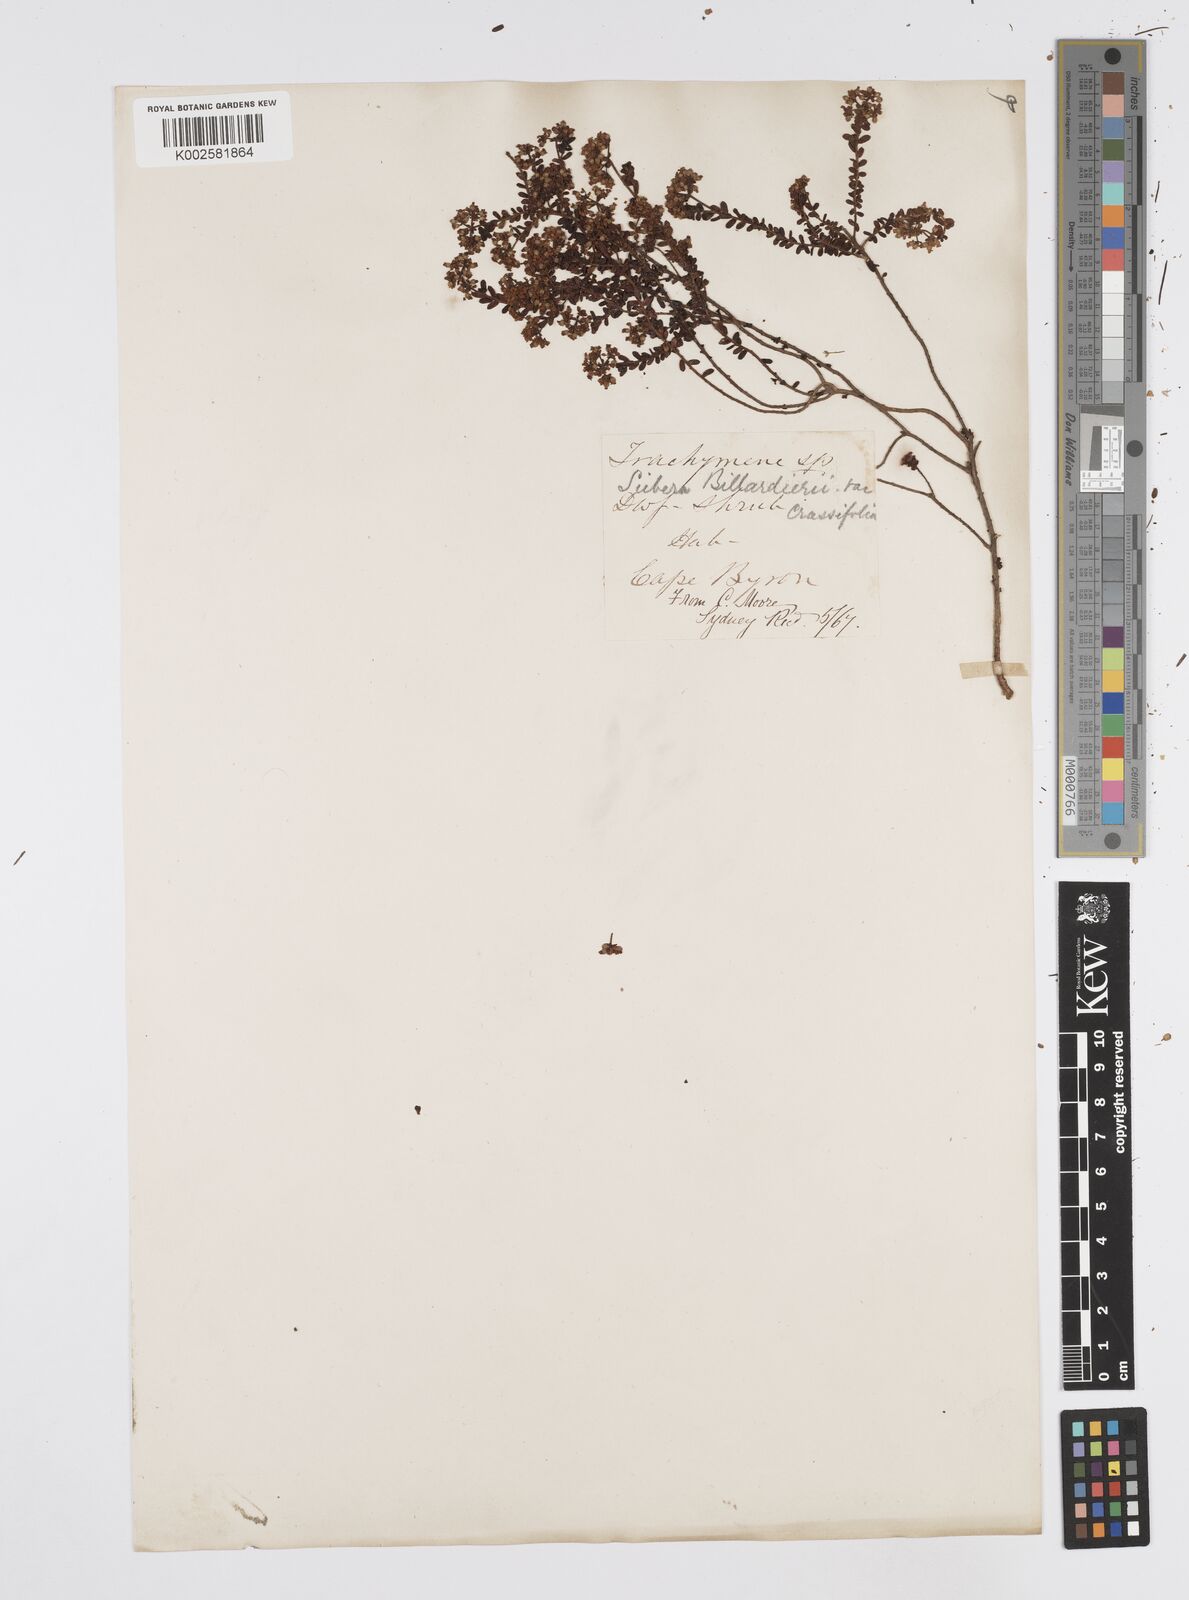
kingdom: Plantae
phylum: Tracheophyta
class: Magnoliopsida
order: Apiales
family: Apiaceae
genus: Platysace
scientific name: Platysace lanceolata
